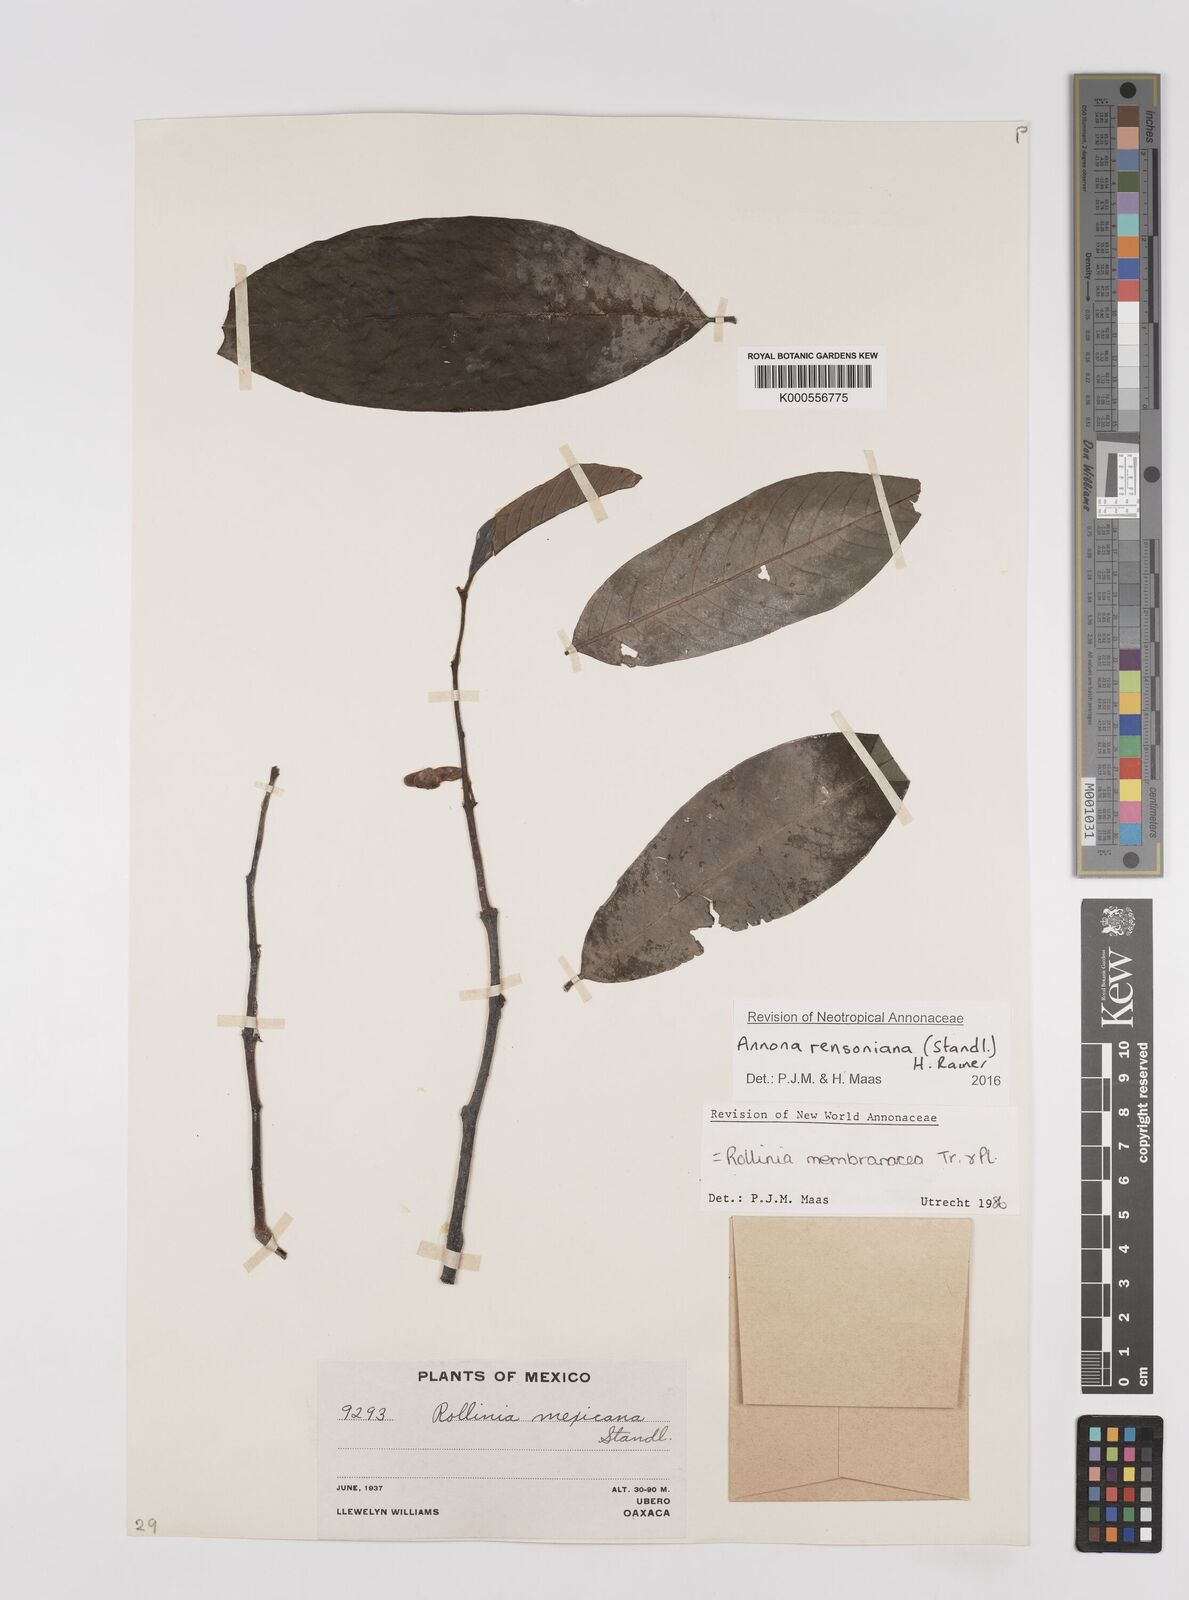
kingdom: Plantae
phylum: Tracheophyta
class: Magnoliopsida
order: Magnoliales
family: Annonaceae
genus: Annona
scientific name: Annona rensoniana
